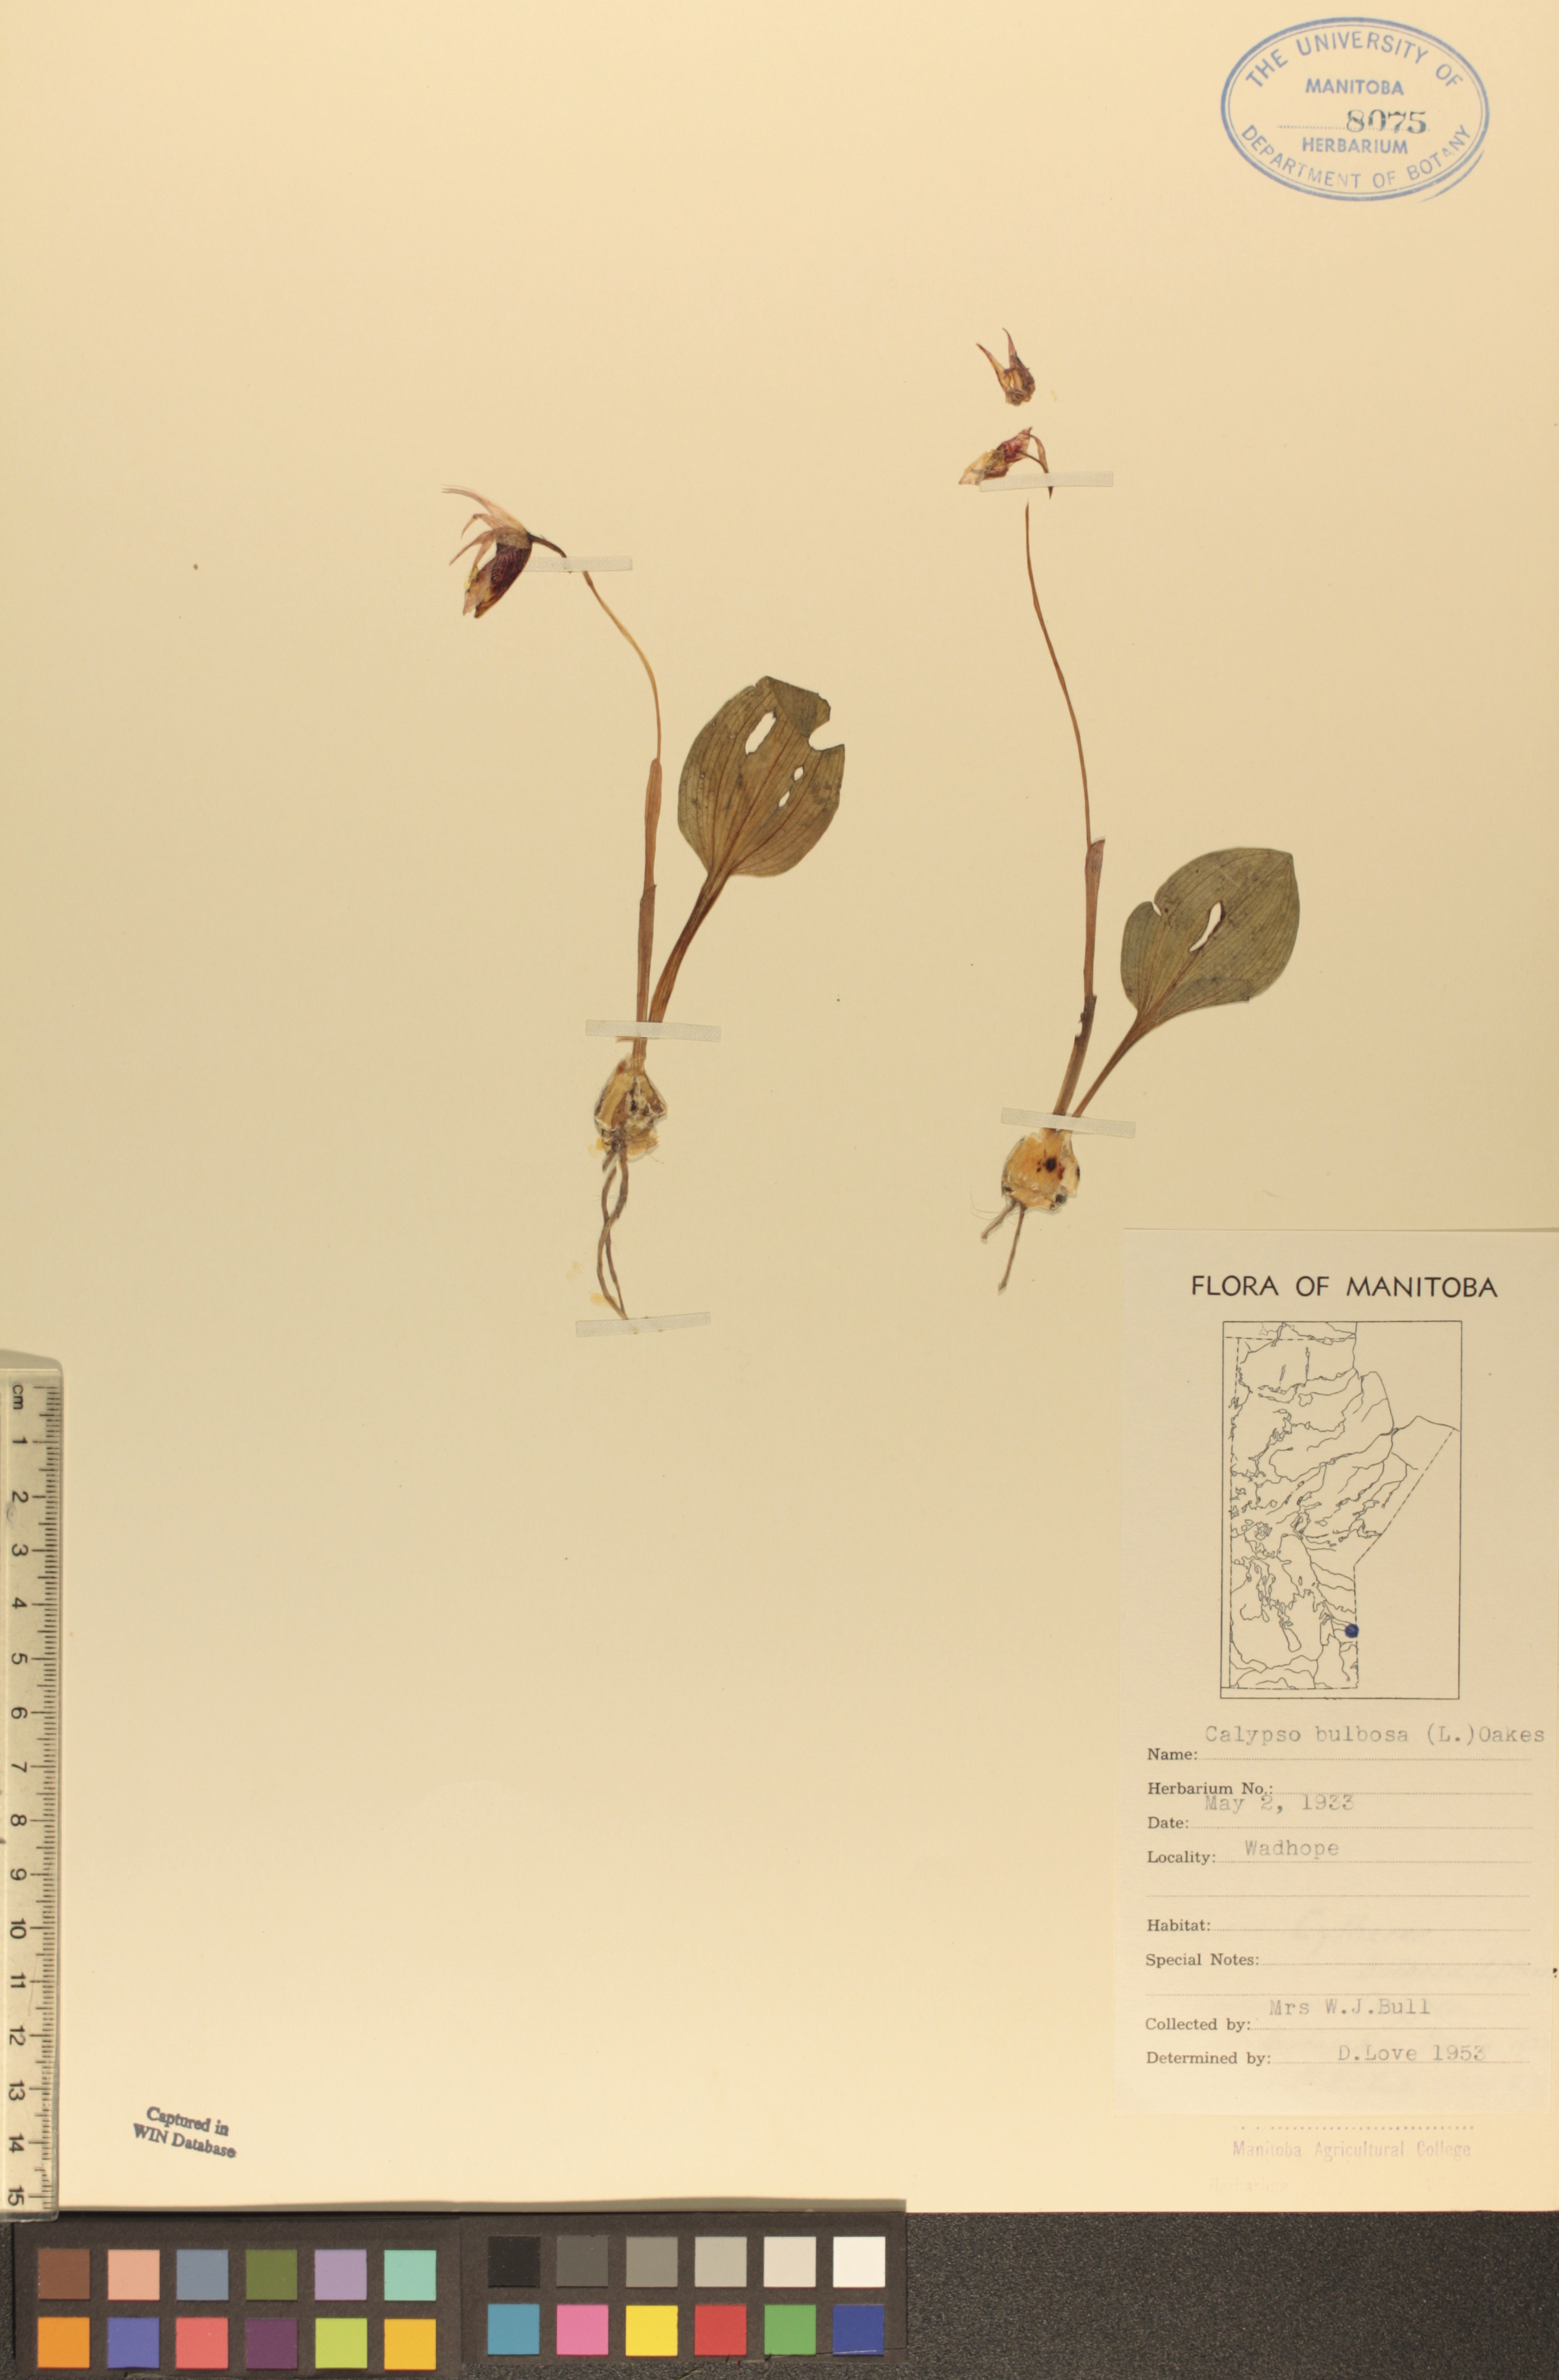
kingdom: Plantae
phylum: Tracheophyta
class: Liliopsida
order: Asparagales
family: Orchidaceae
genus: Calypso
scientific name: Calypso bulbosa
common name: Calypso
